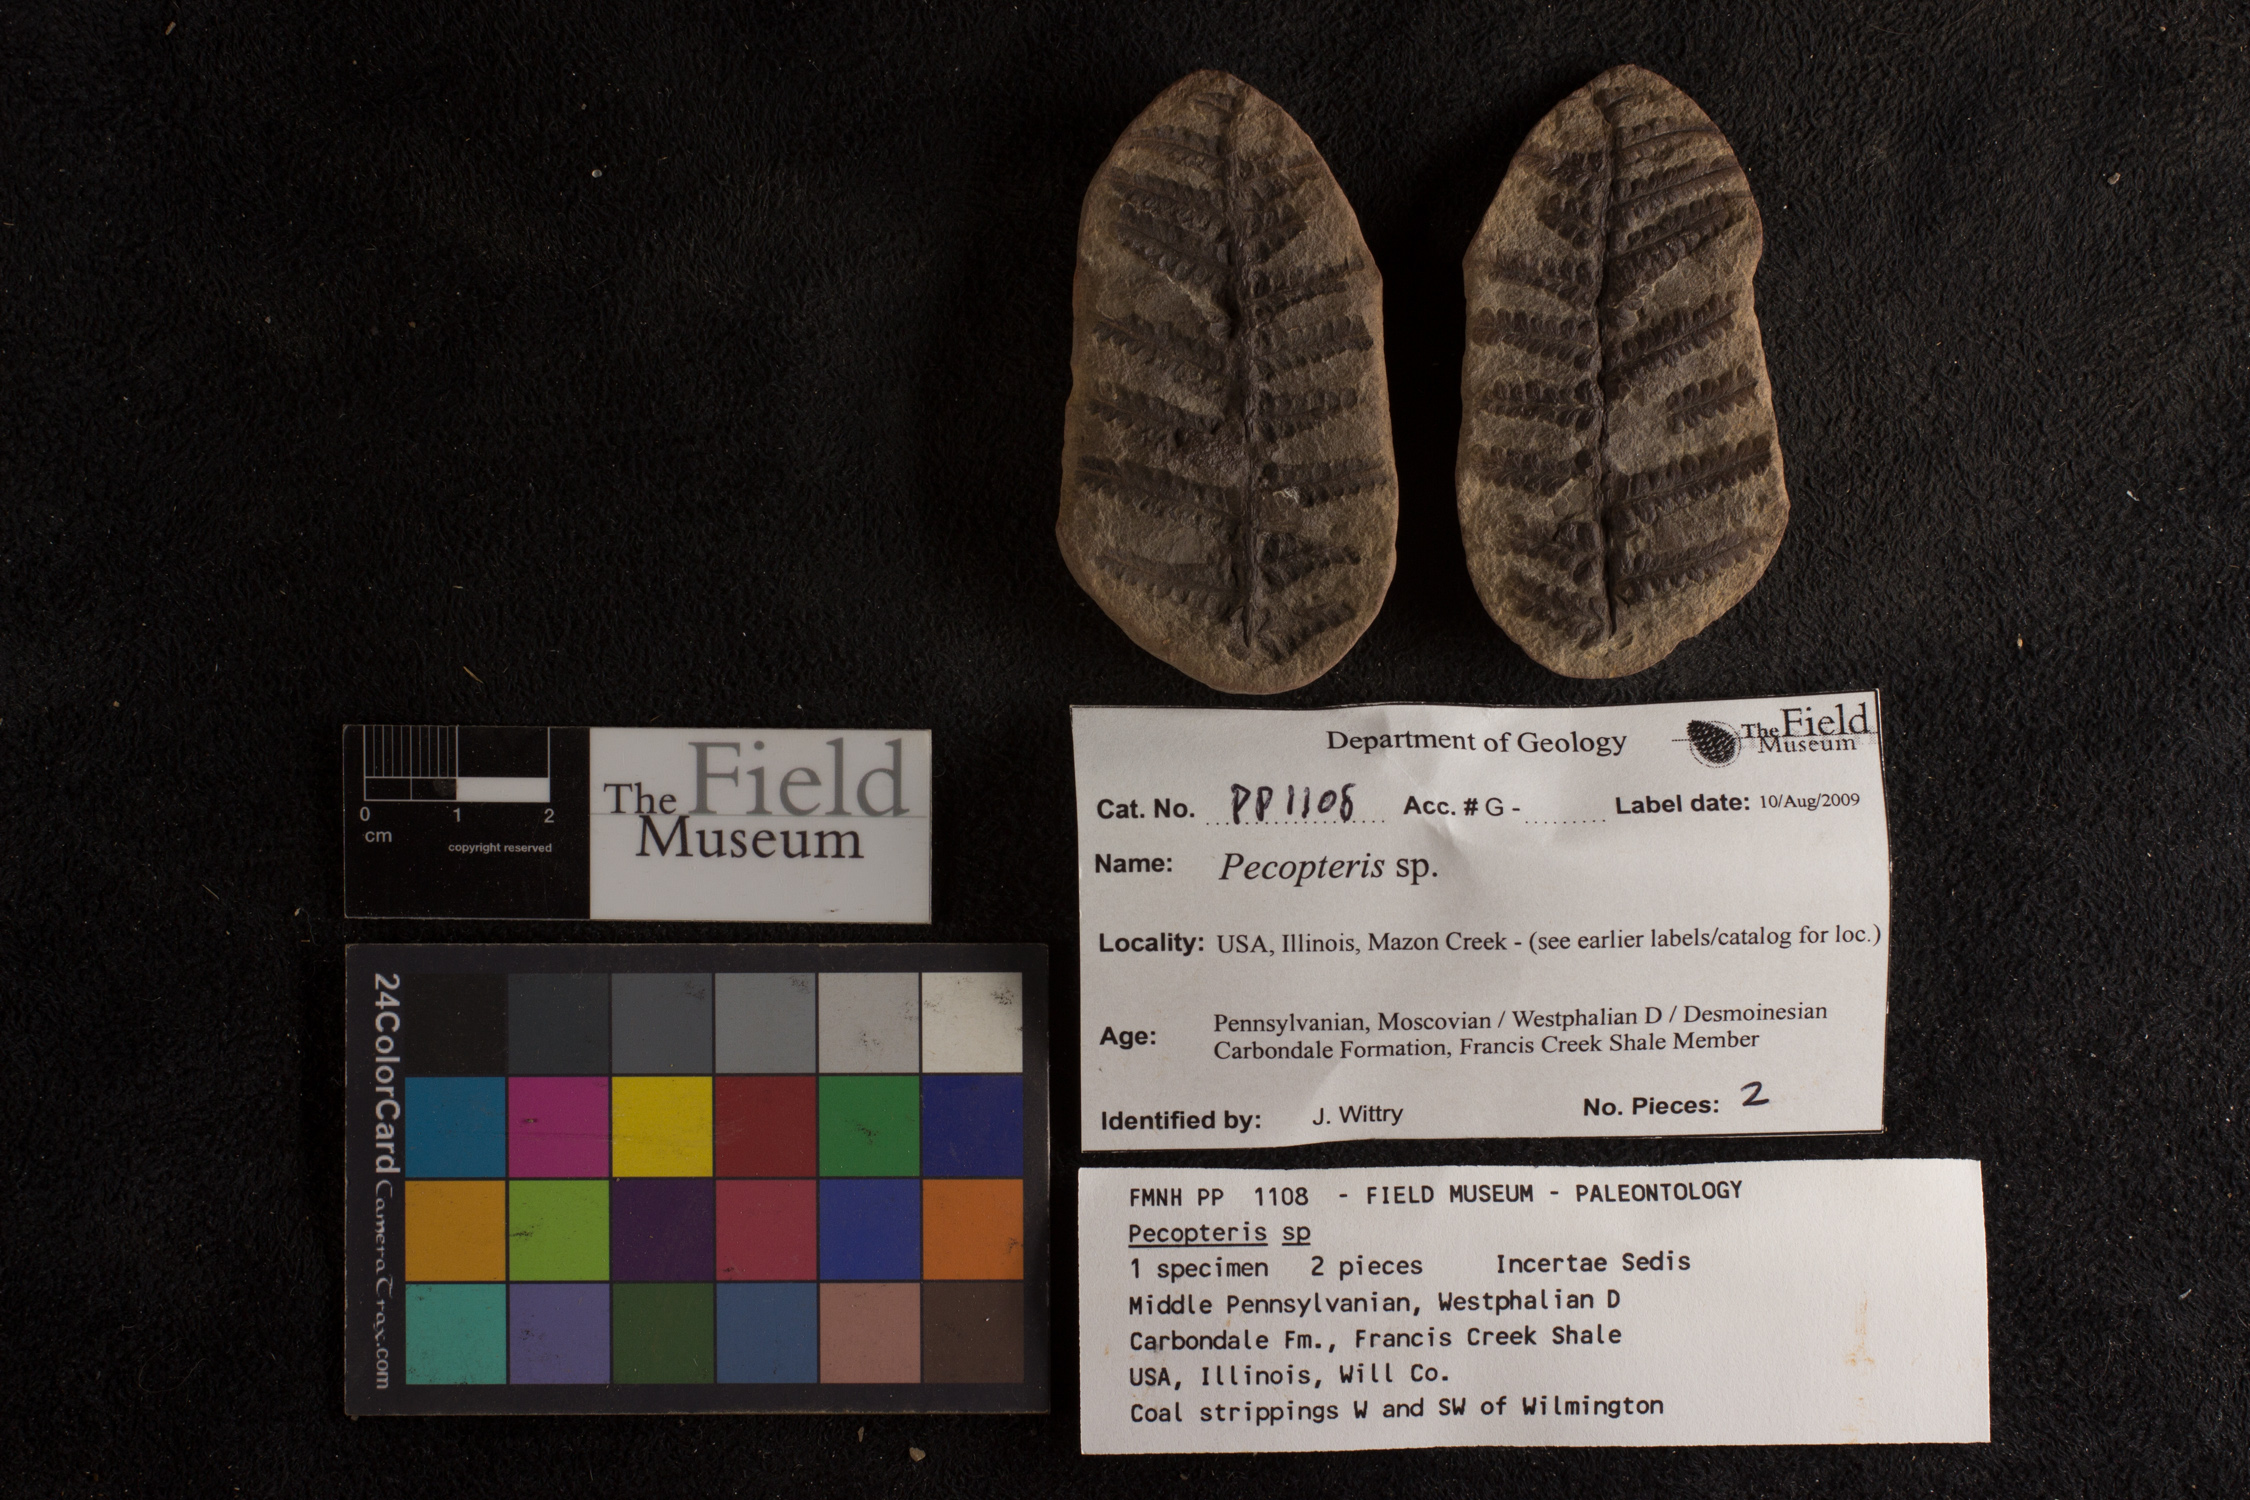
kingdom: Plantae
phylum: Tracheophyta
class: Polypodiopsida
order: Marattiales
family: Asterothecaceae
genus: Pecopteris
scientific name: Pecopteris
